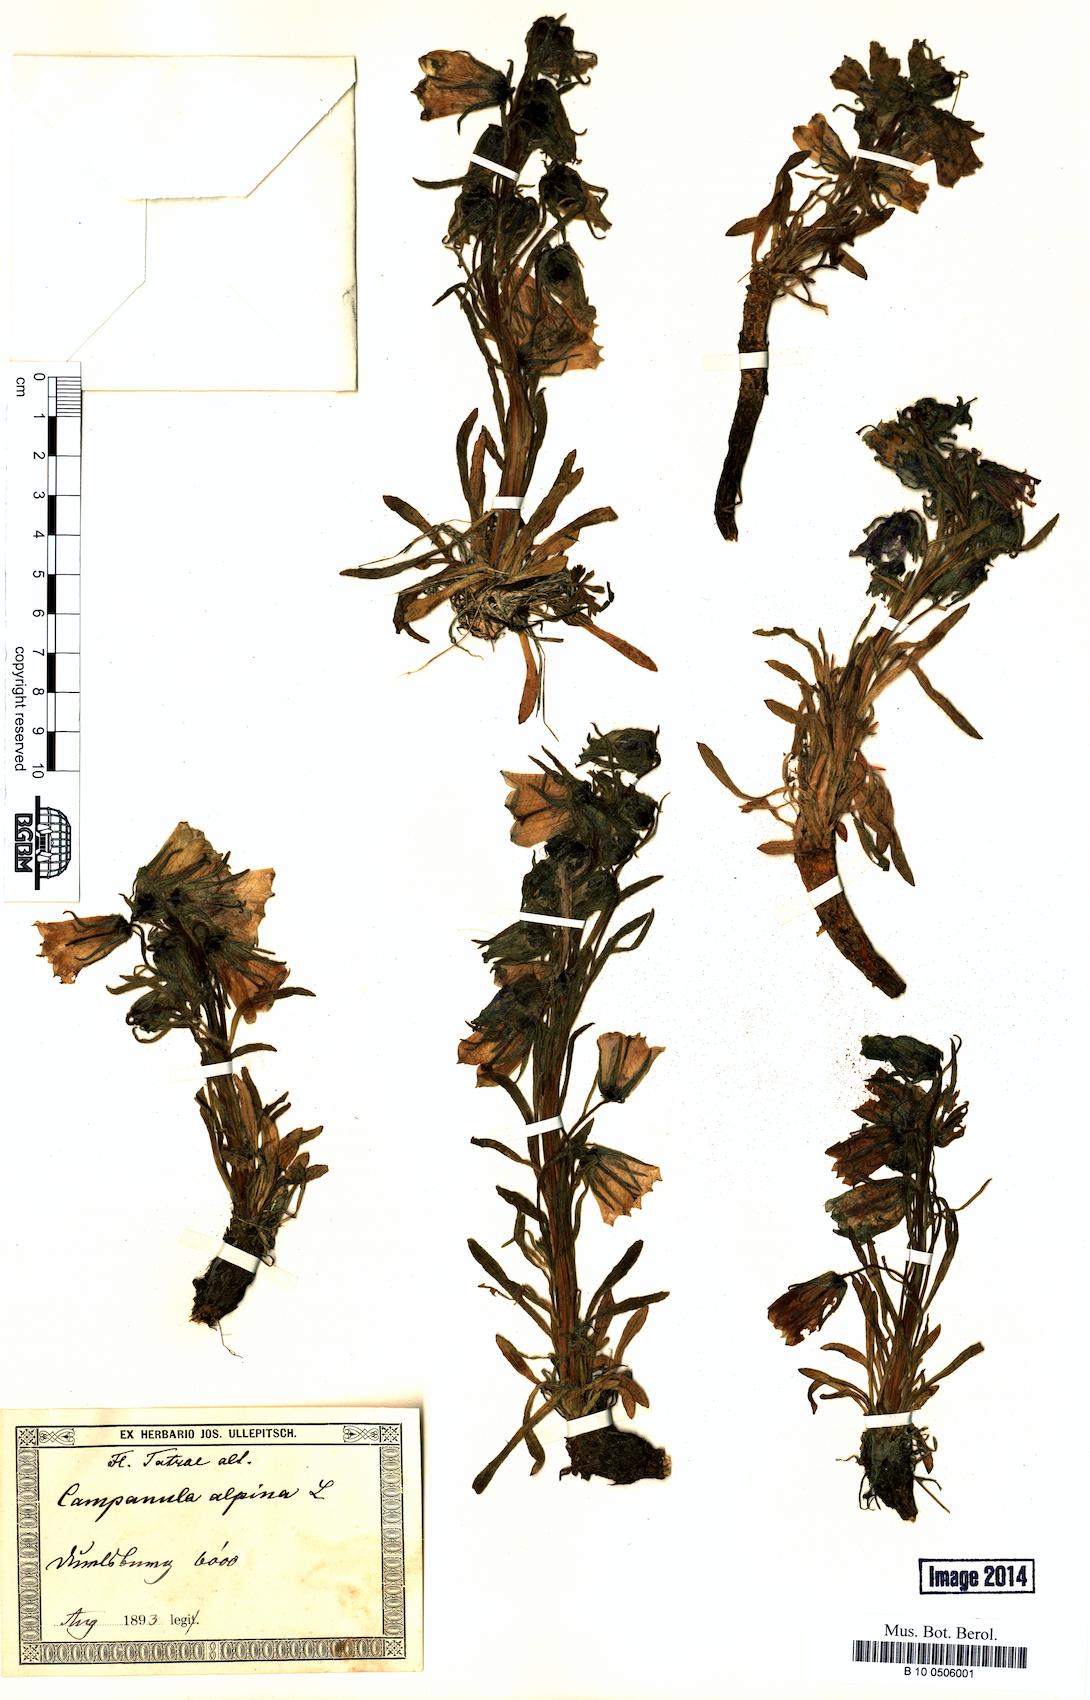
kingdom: Plantae
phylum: Tracheophyta
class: Magnoliopsida
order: Asterales
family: Campanulaceae
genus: Campanula
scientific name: Campanula alpina
